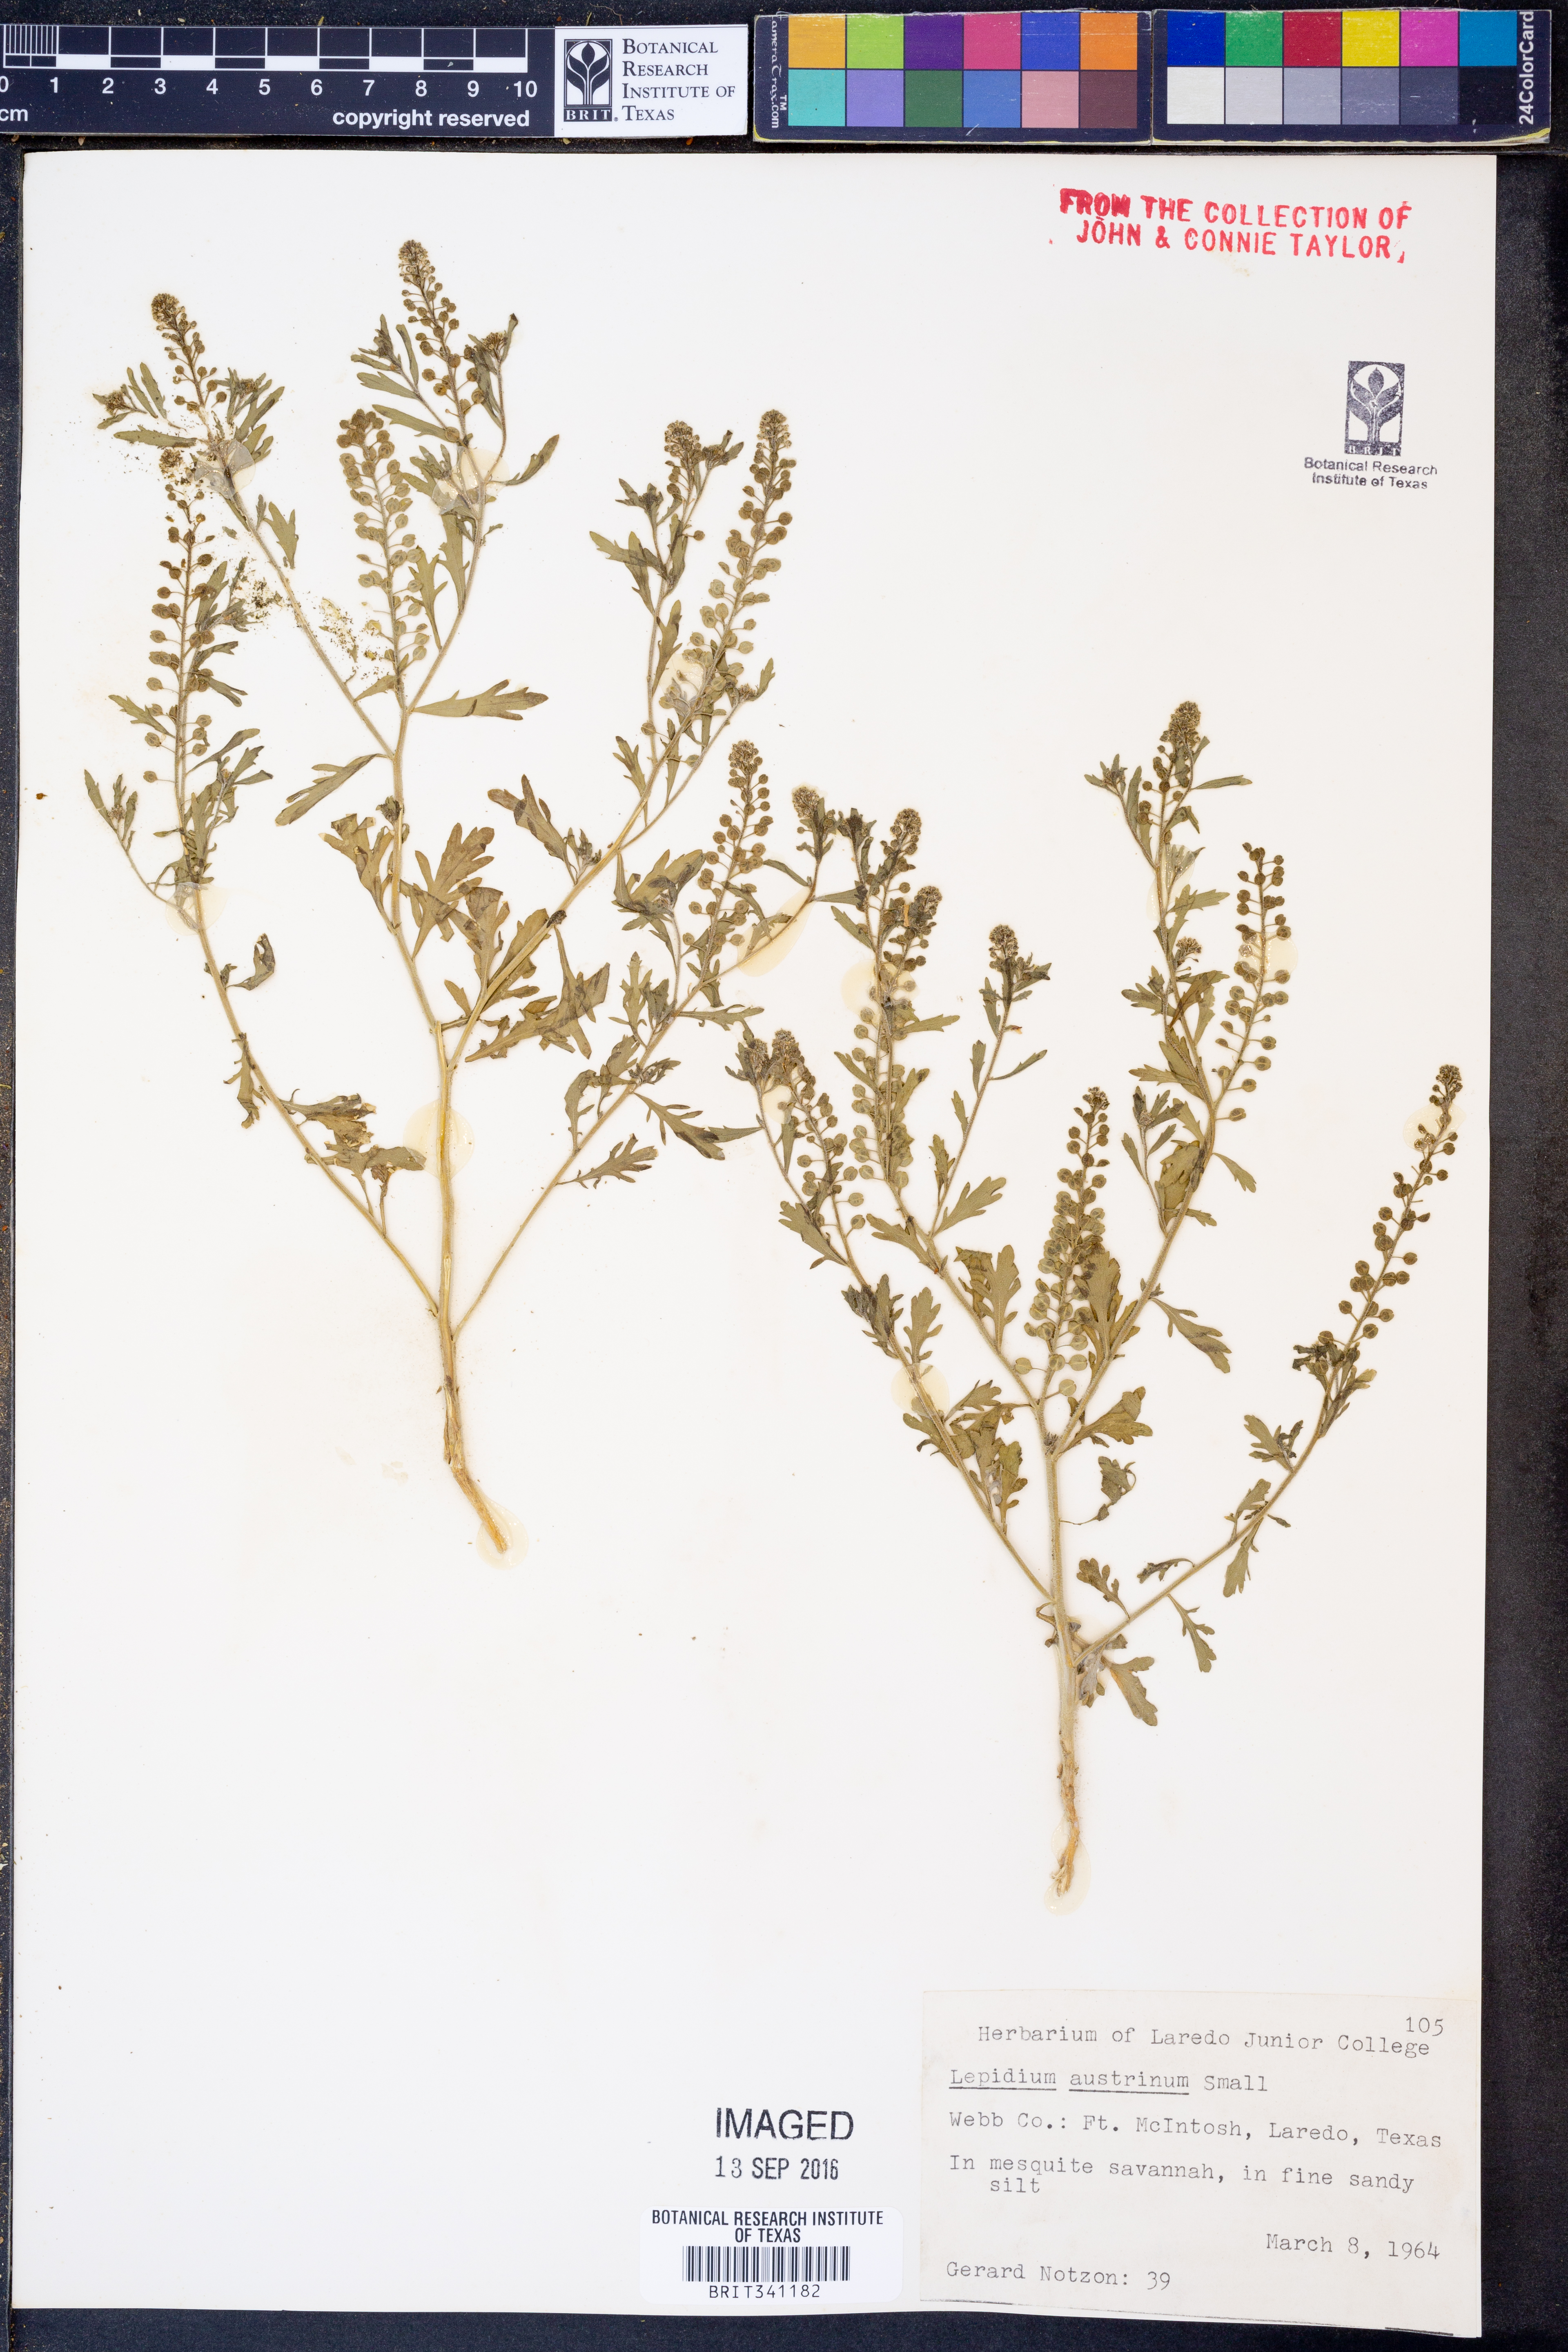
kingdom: Plantae
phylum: Tracheophyta
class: Magnoliopsida
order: Brassicales
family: Brassicaceae
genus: Lepidium
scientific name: Lepidium austrinum
